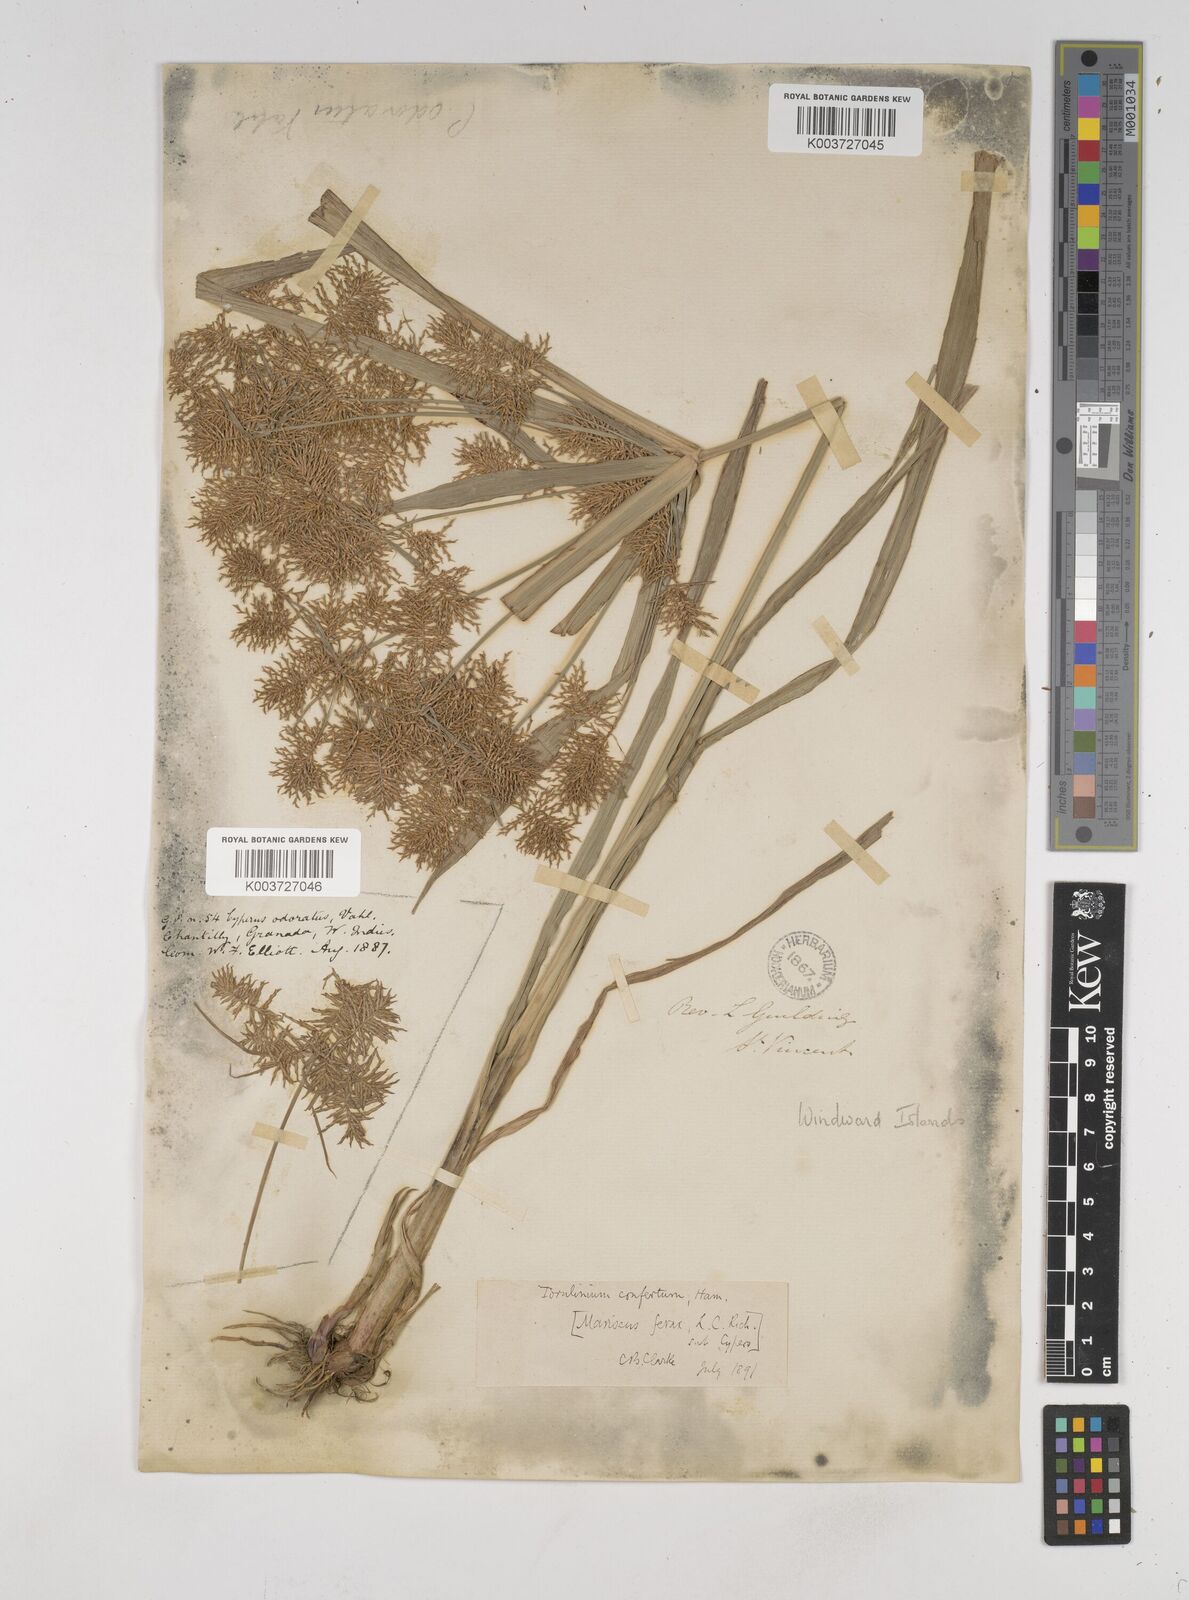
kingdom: Plantae
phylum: Tracheophyta
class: Liliopsida
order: Poales
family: Cyperaceae
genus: Cyperus
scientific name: Cyperus odoratus
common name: Fragrant flatsedge
